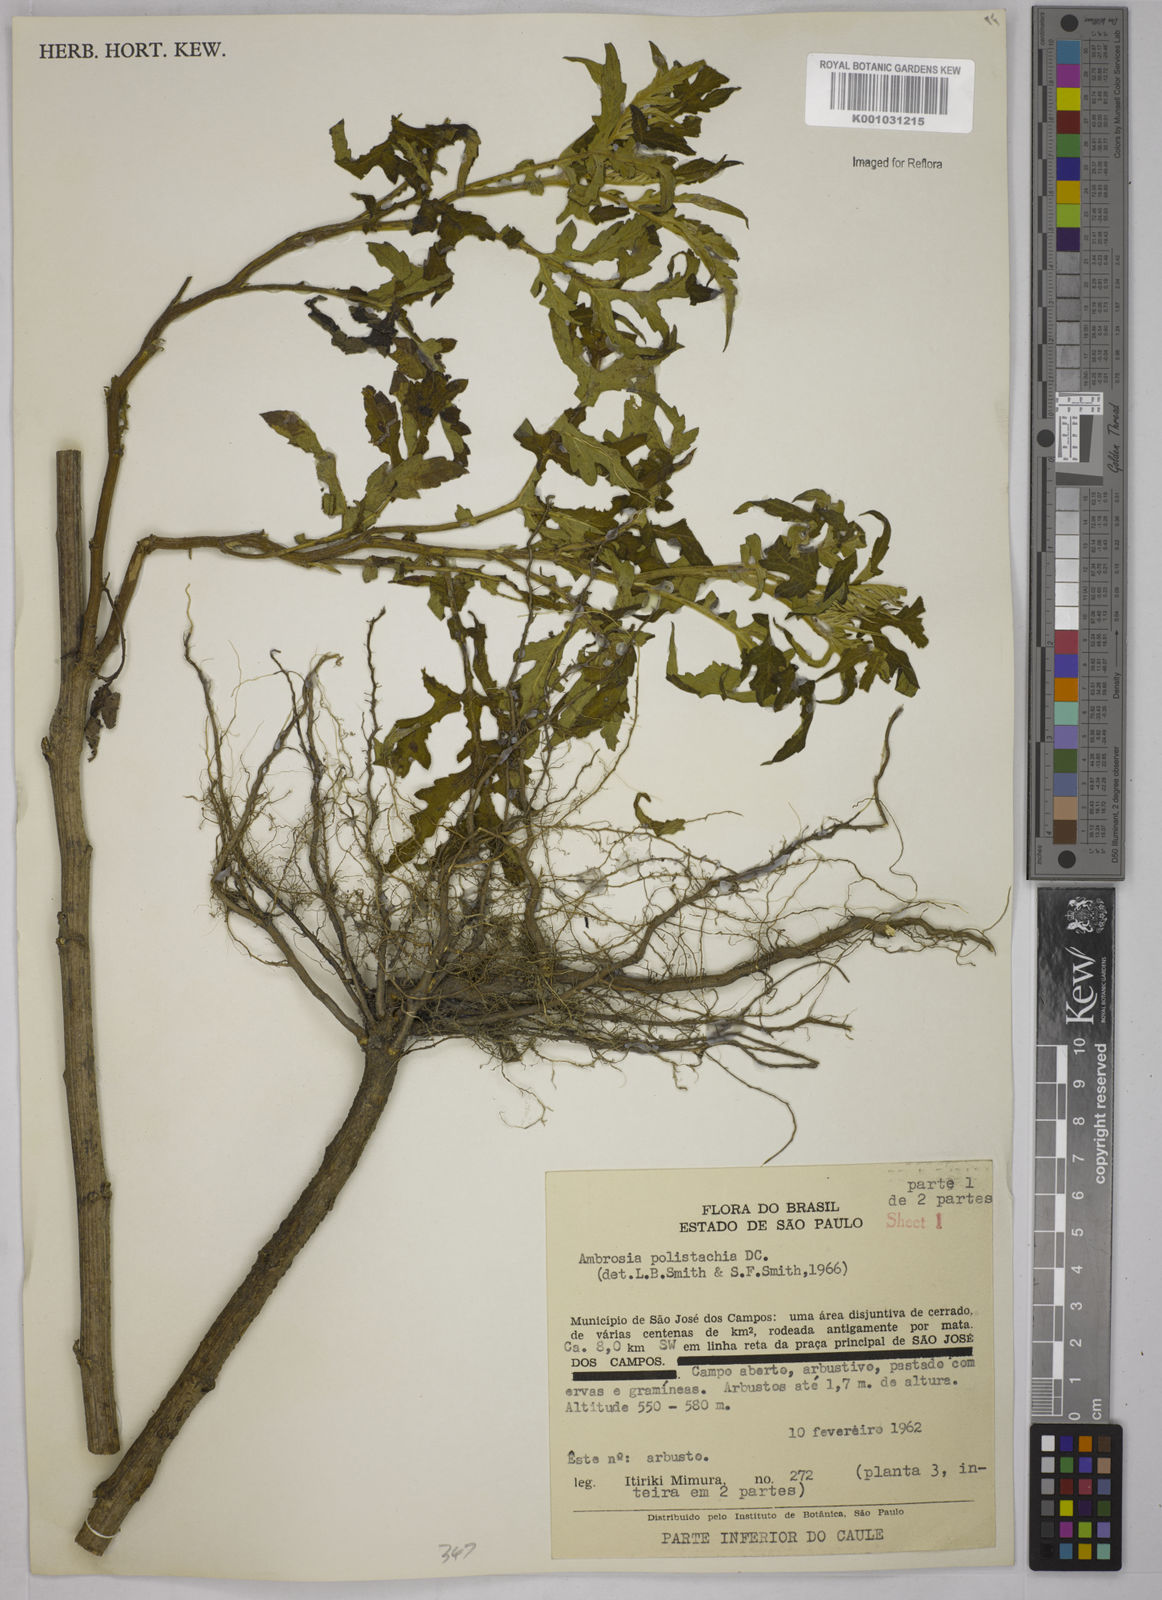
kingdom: Plantae
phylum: Tracheophyta
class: Magnoliopsida
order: Asterales
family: Asteraceae
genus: Ambrosia
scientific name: Ambrosia polystachya
